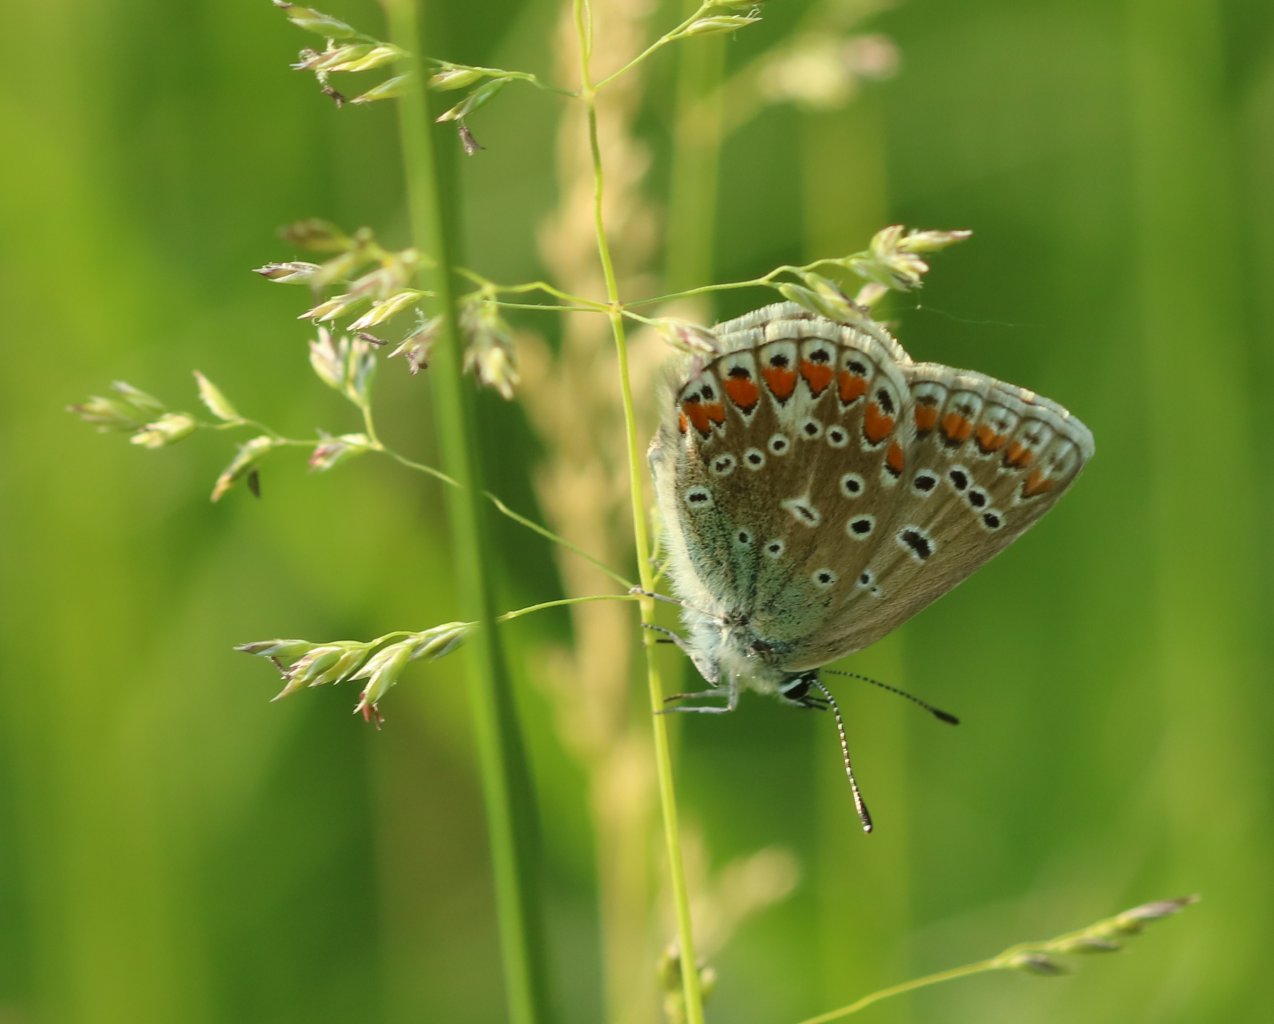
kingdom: Animalia
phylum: Arthropoda
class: Insecta
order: Lepidoptera
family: Lycaenidae
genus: Polyommatus
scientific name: Polyommatus icarus
